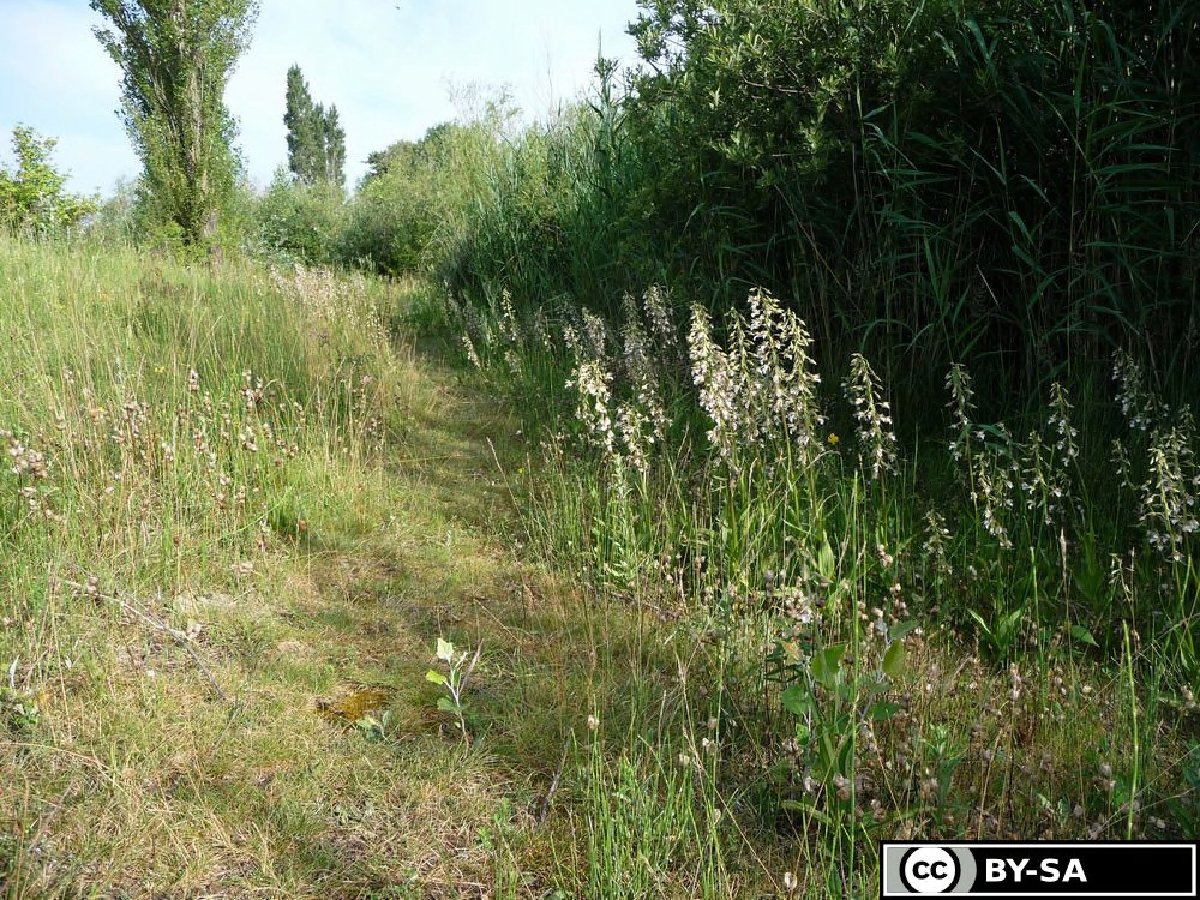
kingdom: Plantae
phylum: Tracheophyta
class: Liliopsida
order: Asparagales
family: Orchidaceae
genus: Epipactis
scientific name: Epipactis palustris
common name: Marsh helleborine
